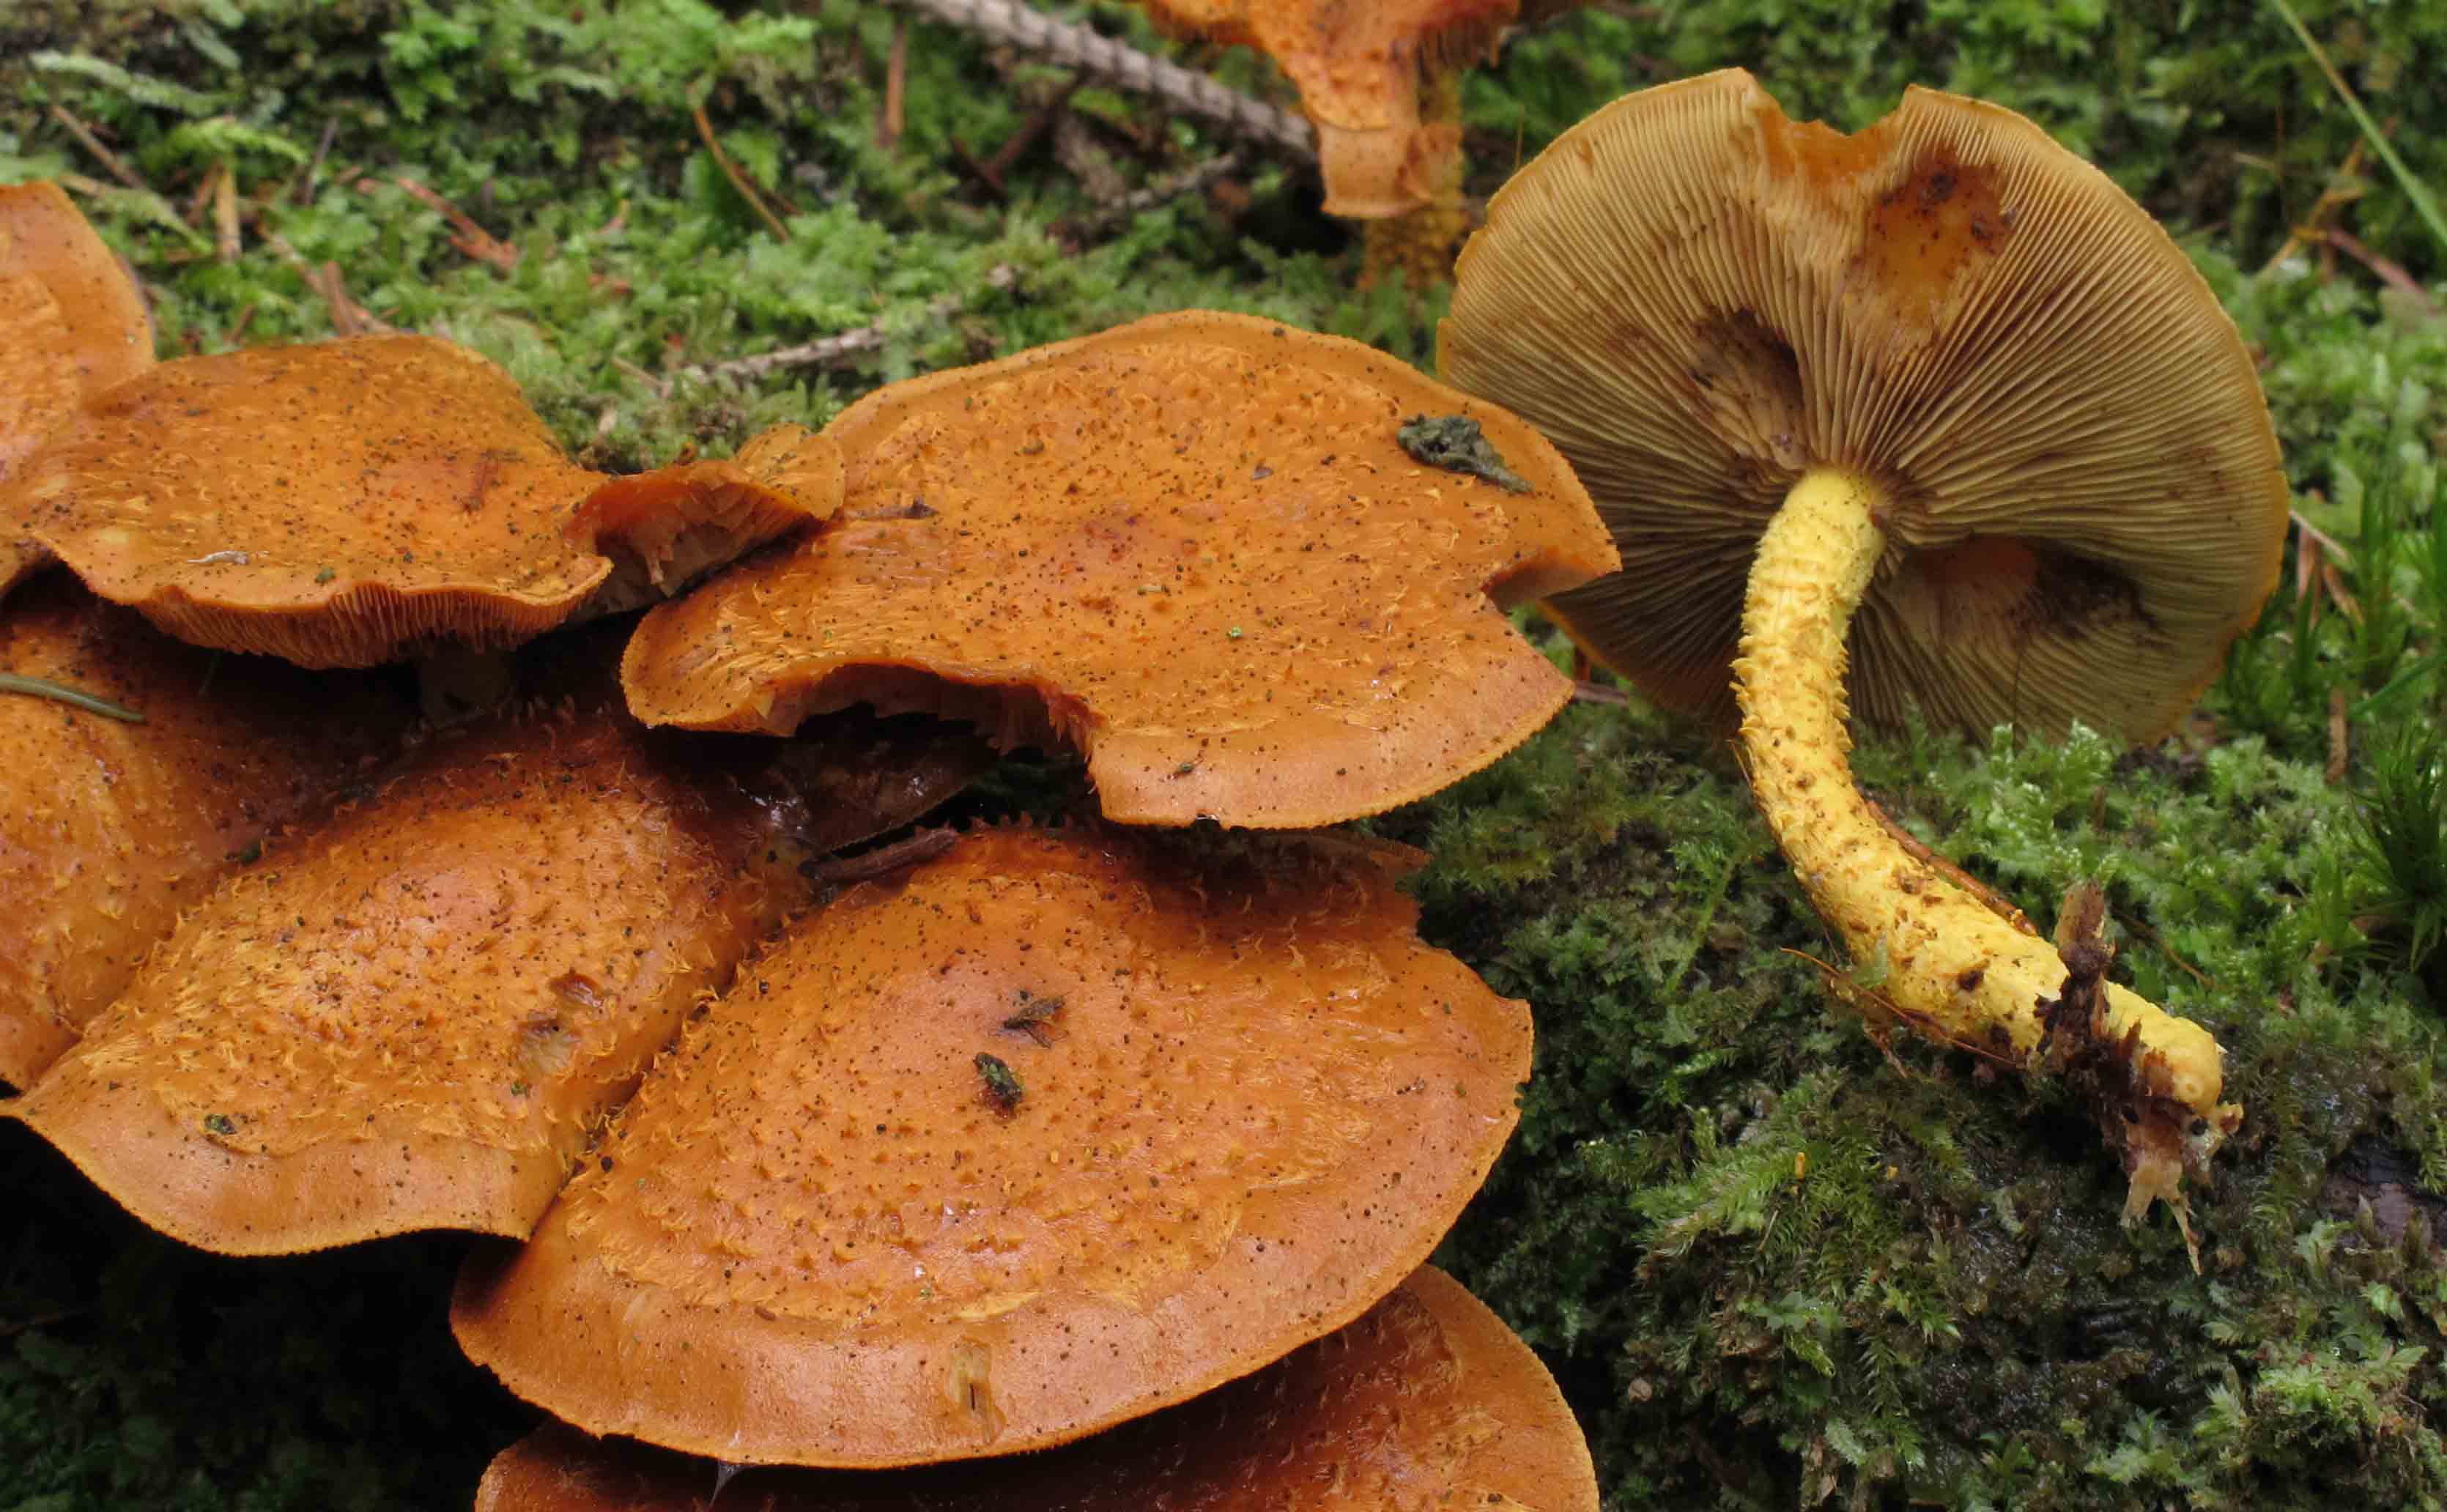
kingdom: Fungi
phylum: Basidiomycota
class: Agaricomycetes
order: Agaricales
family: Strophariaceae
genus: Pholiota
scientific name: Pholiota flammans
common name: flamme-skælhat
